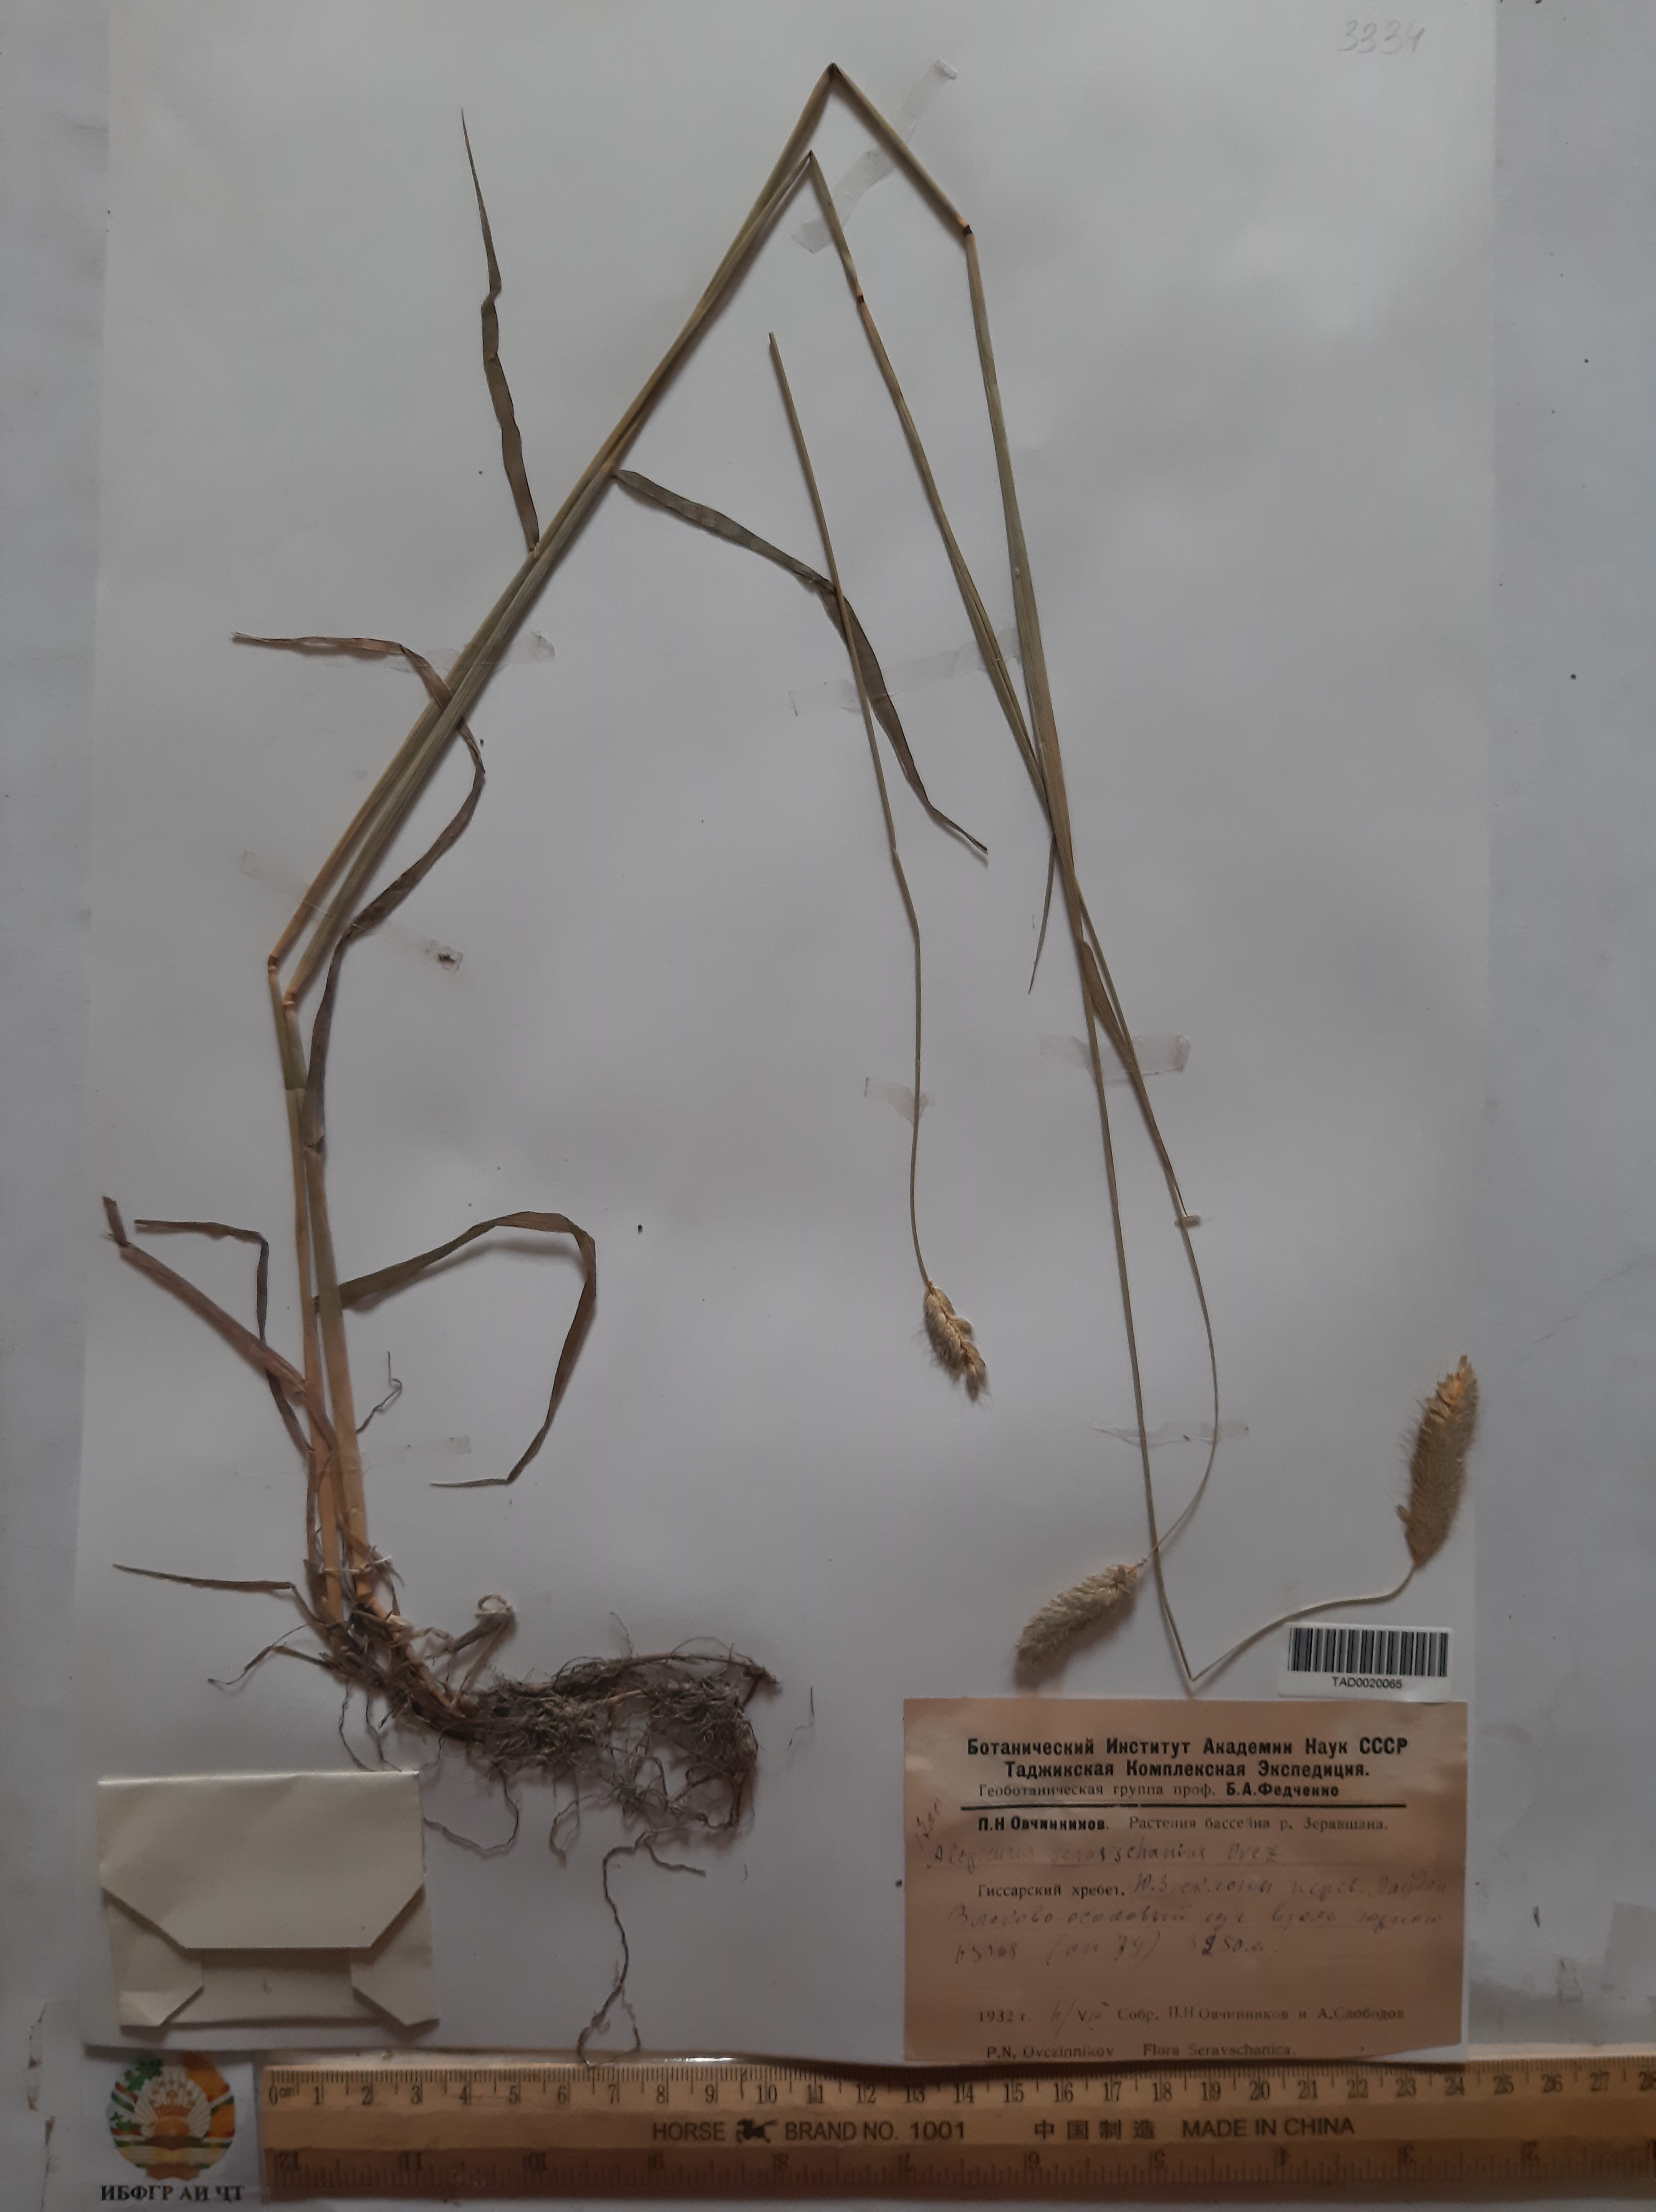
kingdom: Plantae
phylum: Tracheophyta
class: Liliopsida
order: Poales
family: Poaceae
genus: Alopecurus
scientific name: Alopecurus pratensis
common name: Meadow foxtail
